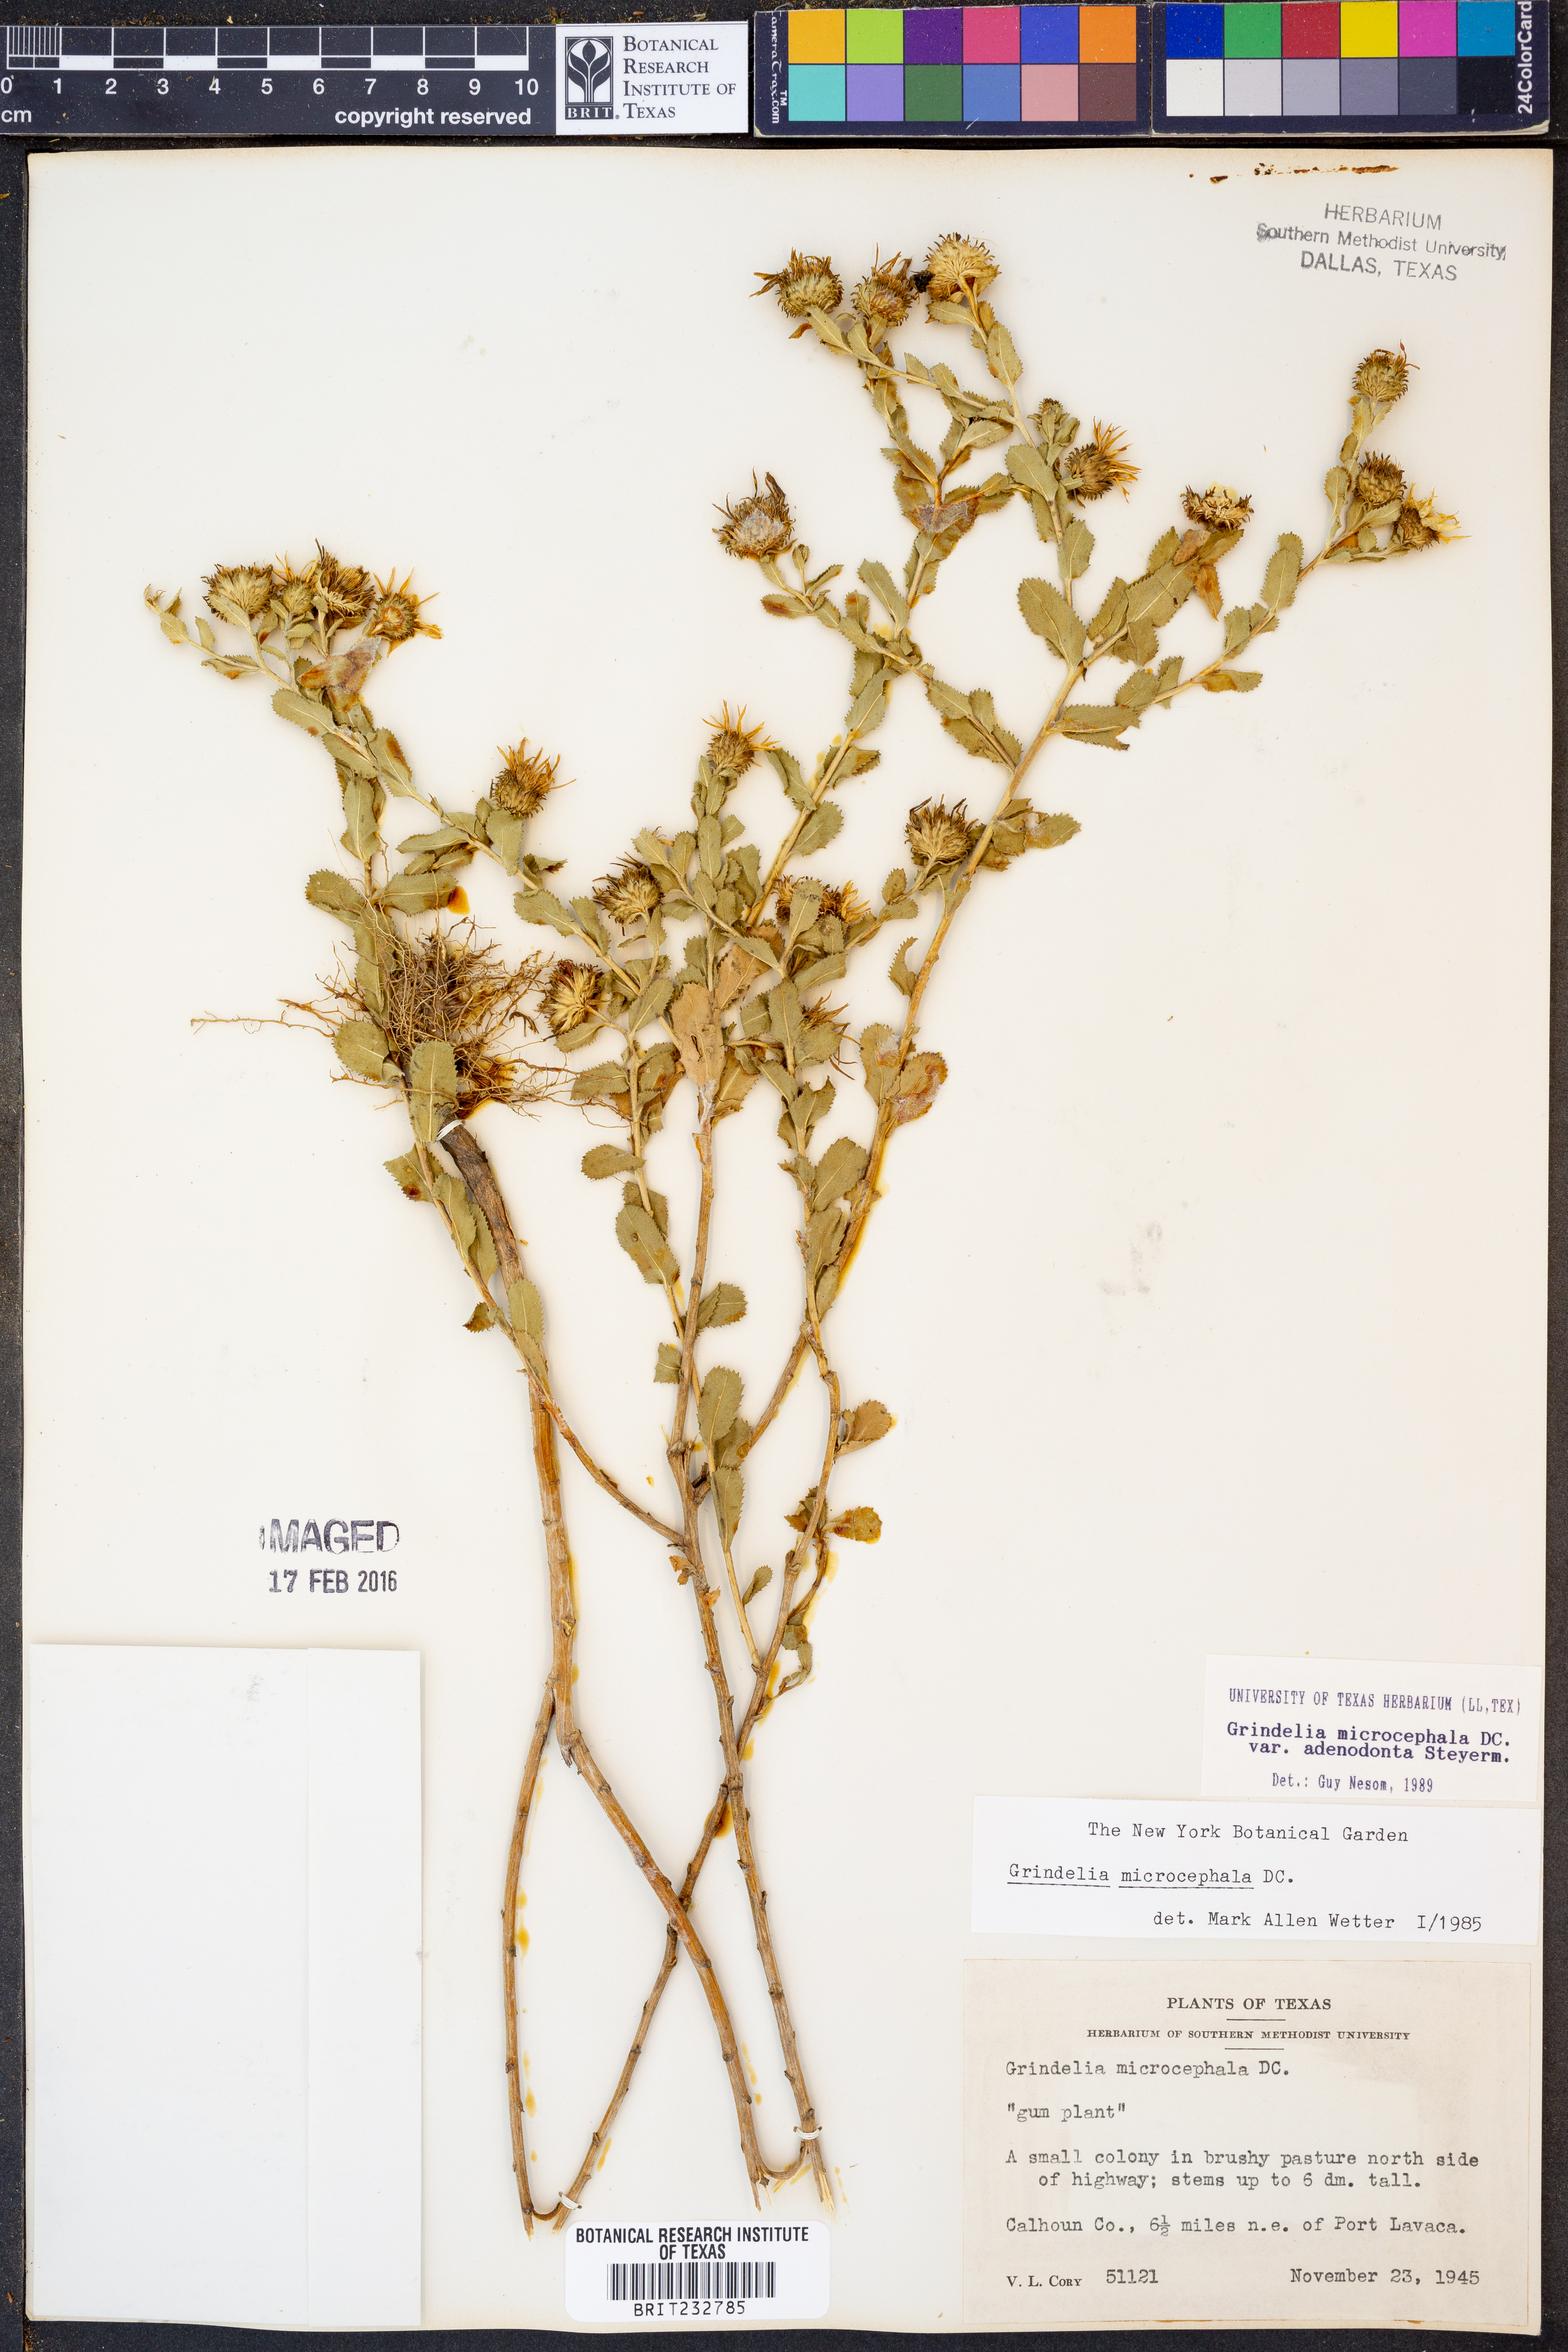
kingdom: Plantae
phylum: Tracheophyta
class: Magnoliopsida
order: Asterales
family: Asteraceae
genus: Grindelia
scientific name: Grindelia adenodonta
